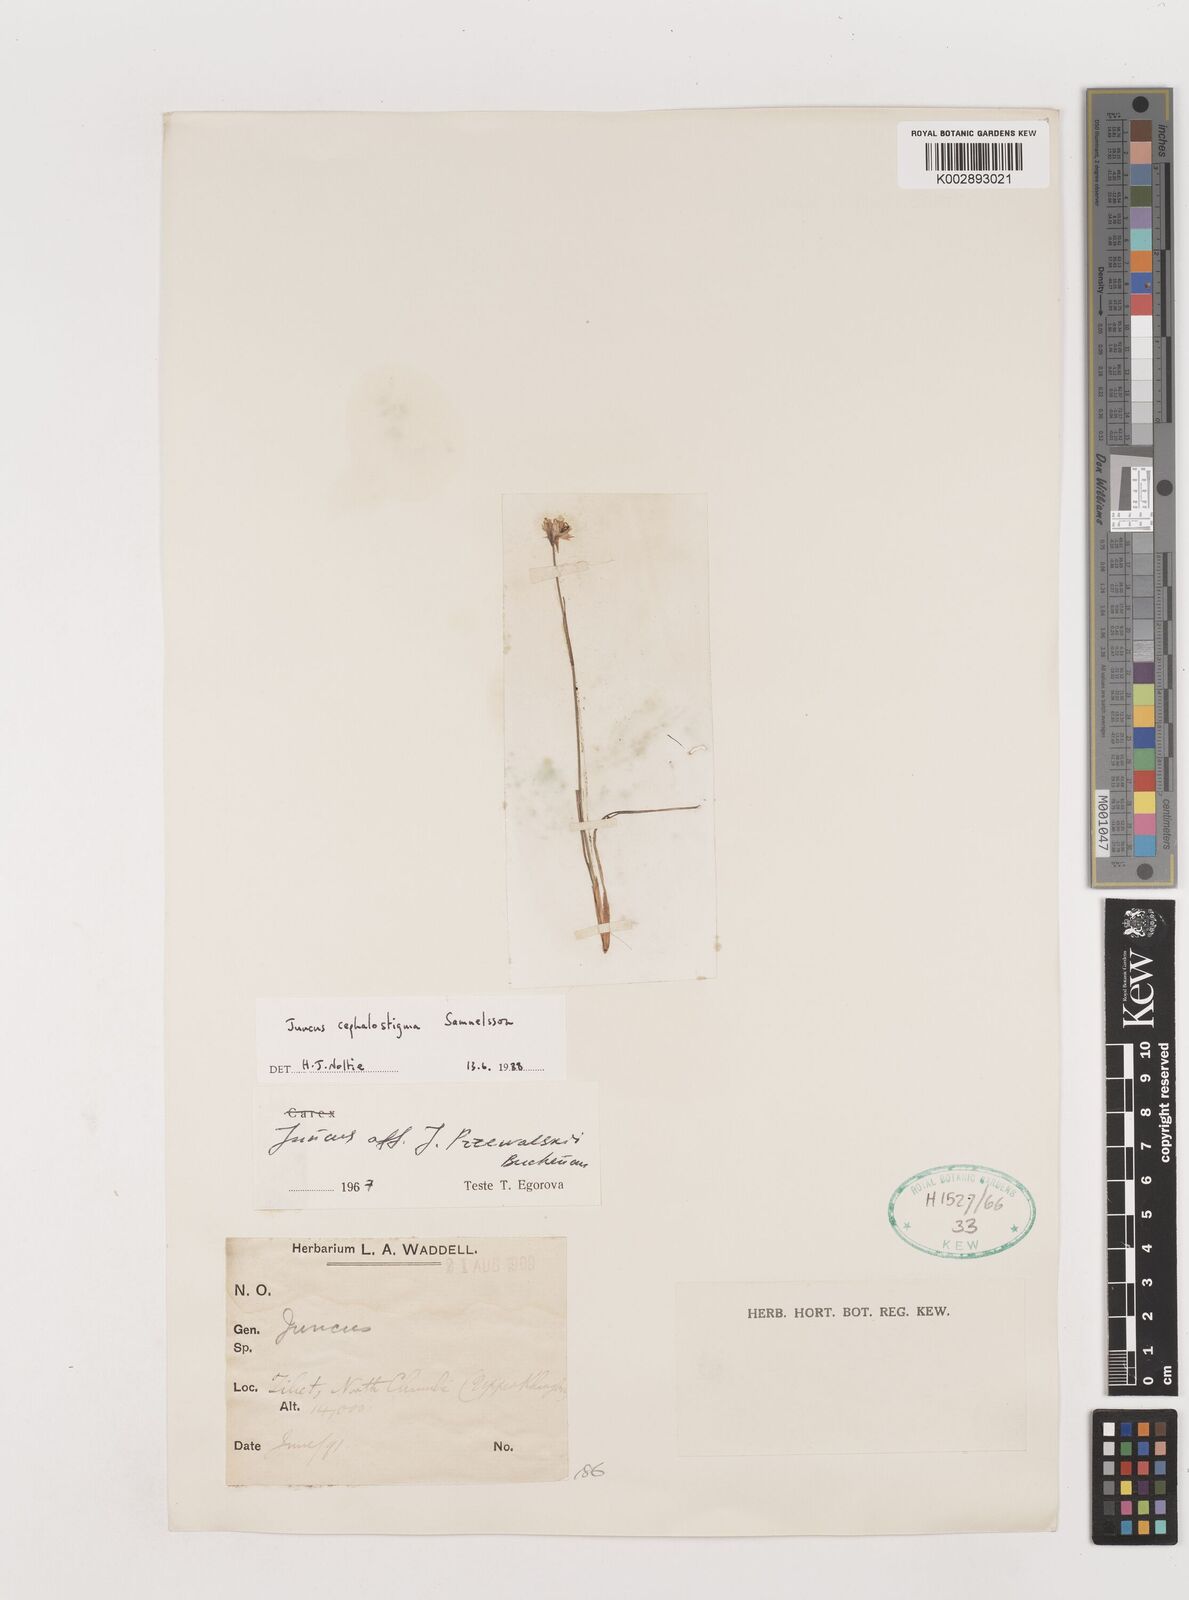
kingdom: Plantae
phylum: Tracheophyta
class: Liliopsida
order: Poales
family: Juncaceae
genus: Juncus
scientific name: Juncus cephalostigma
